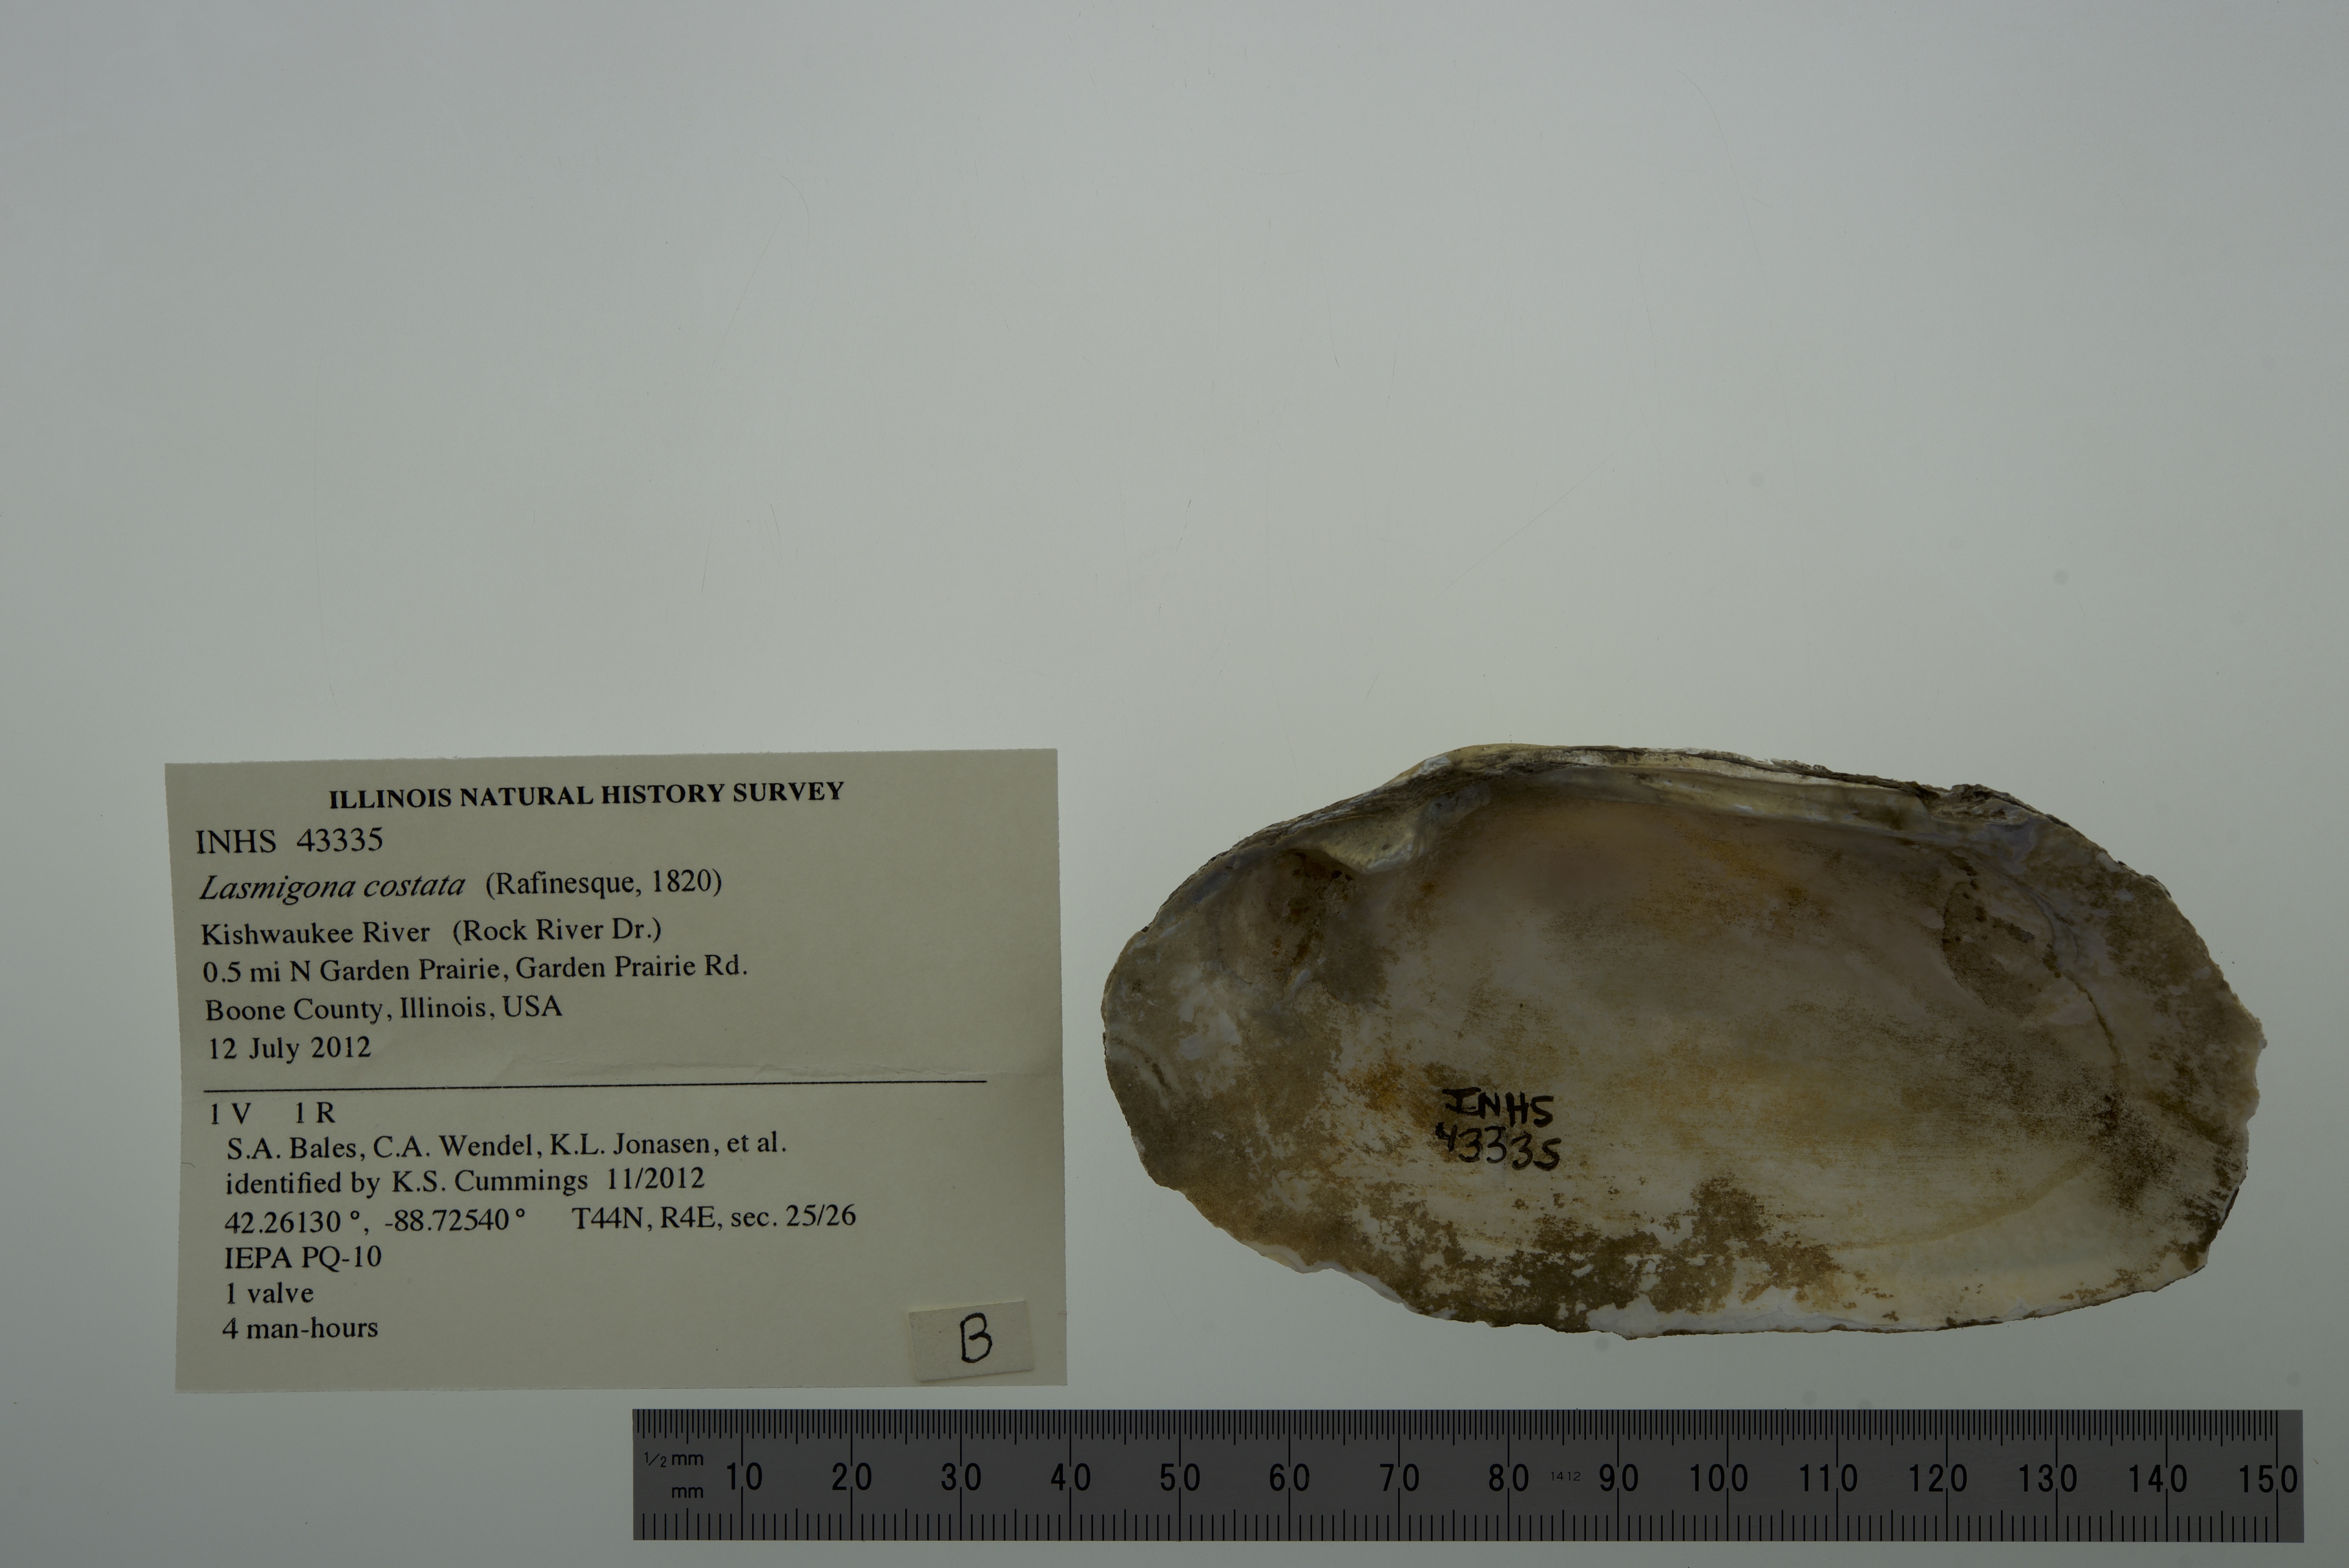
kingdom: Animalia
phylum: Mollusca
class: Bivalvia
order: Unionida
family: Unionidae
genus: Lasmigona
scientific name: Lasmigona costata
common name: Flutedshell
